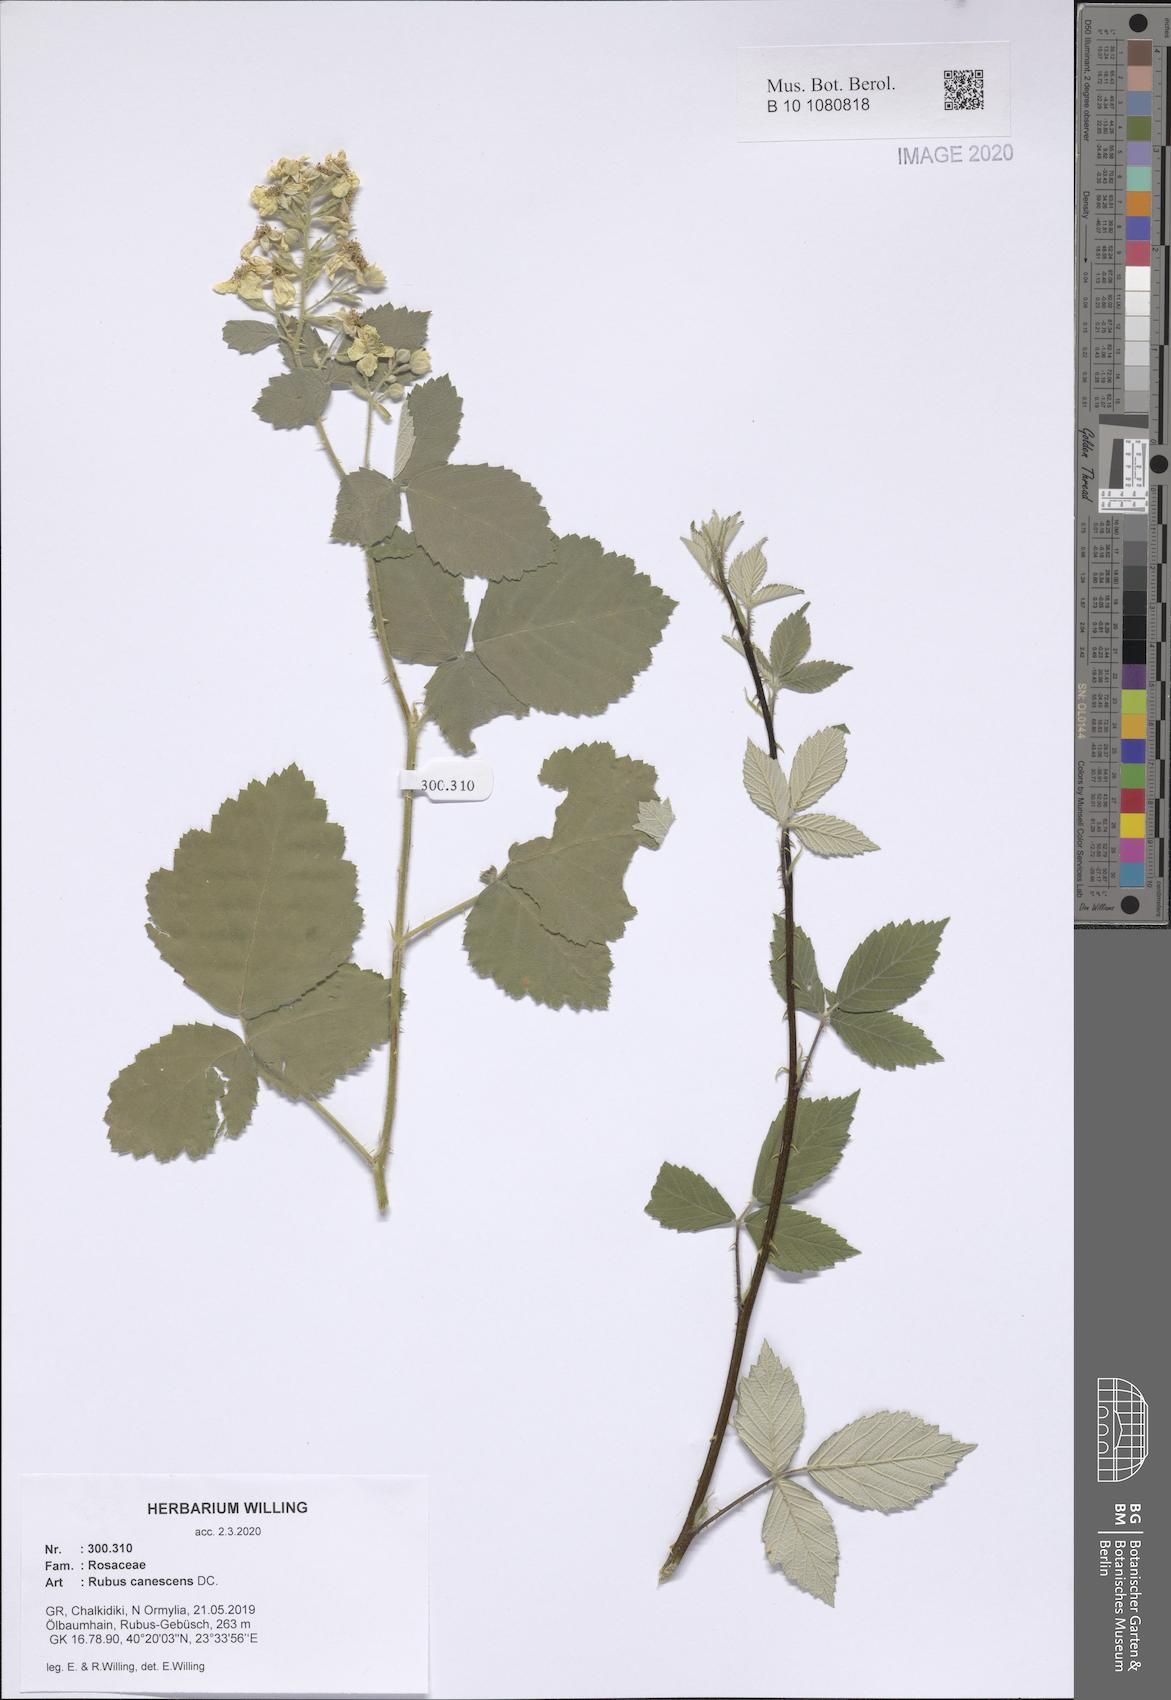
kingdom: Plantae
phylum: Tracheophyta
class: Magnoliopsida
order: Rosales
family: Rosaceae
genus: Rubus
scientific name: Rubus canescens
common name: Wooly blackberry
